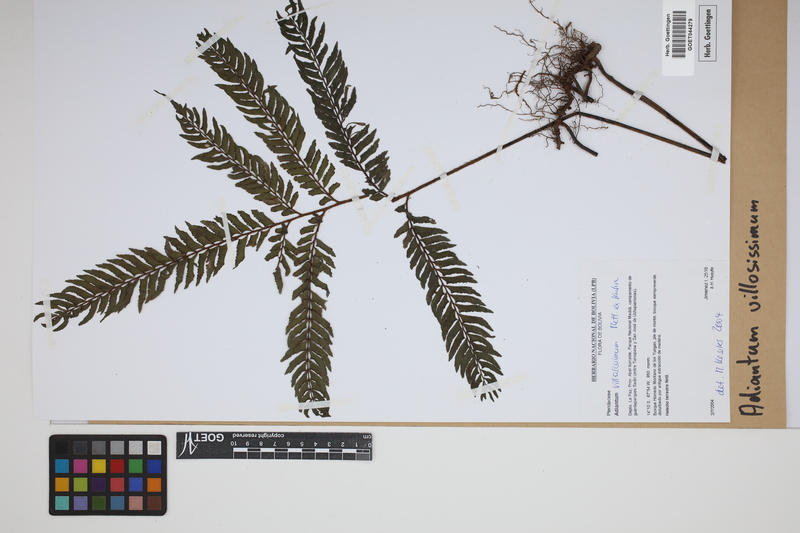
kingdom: Plantae
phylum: Tracheophyta
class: Polypodiopsida
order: Polypodiales
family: Pteridaceae
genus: Adiantum
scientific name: Adiantum villosissimum
